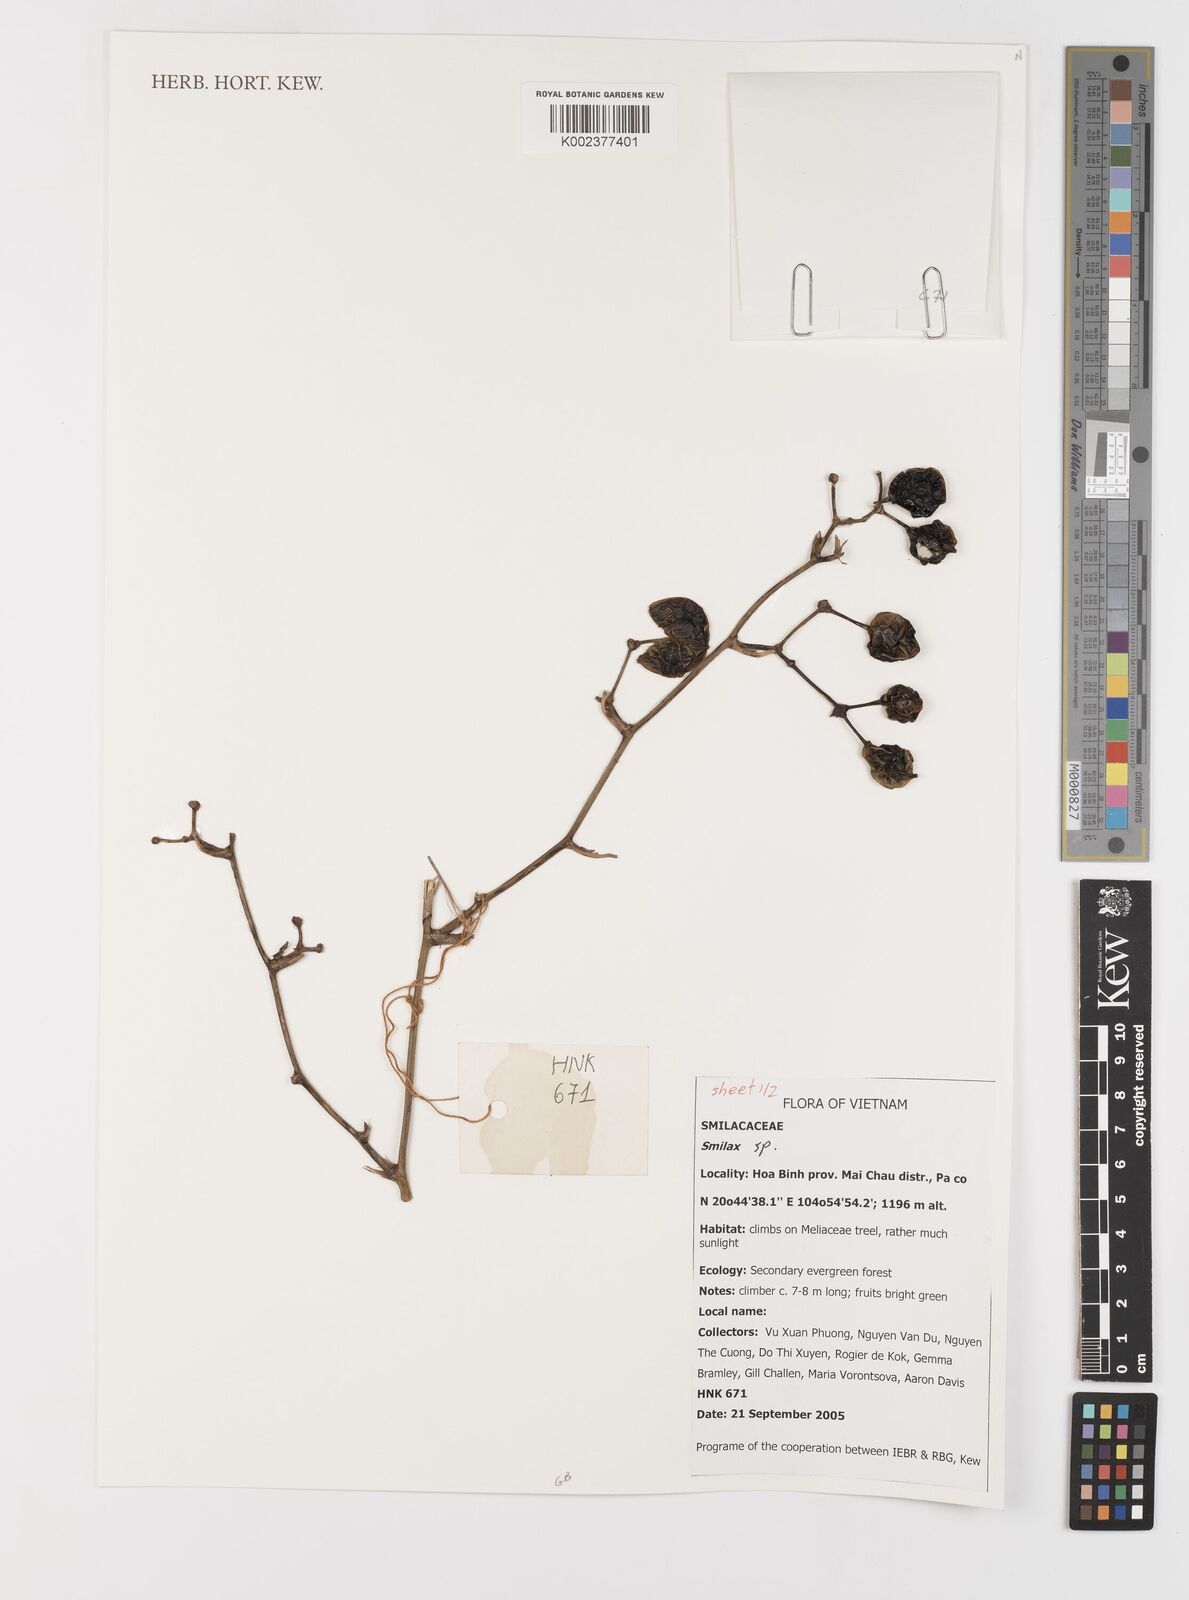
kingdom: Plantae
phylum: Tracheophyta
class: Liliopsida
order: Liliales
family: Smilacaceae
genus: Smilax
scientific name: Smilax
